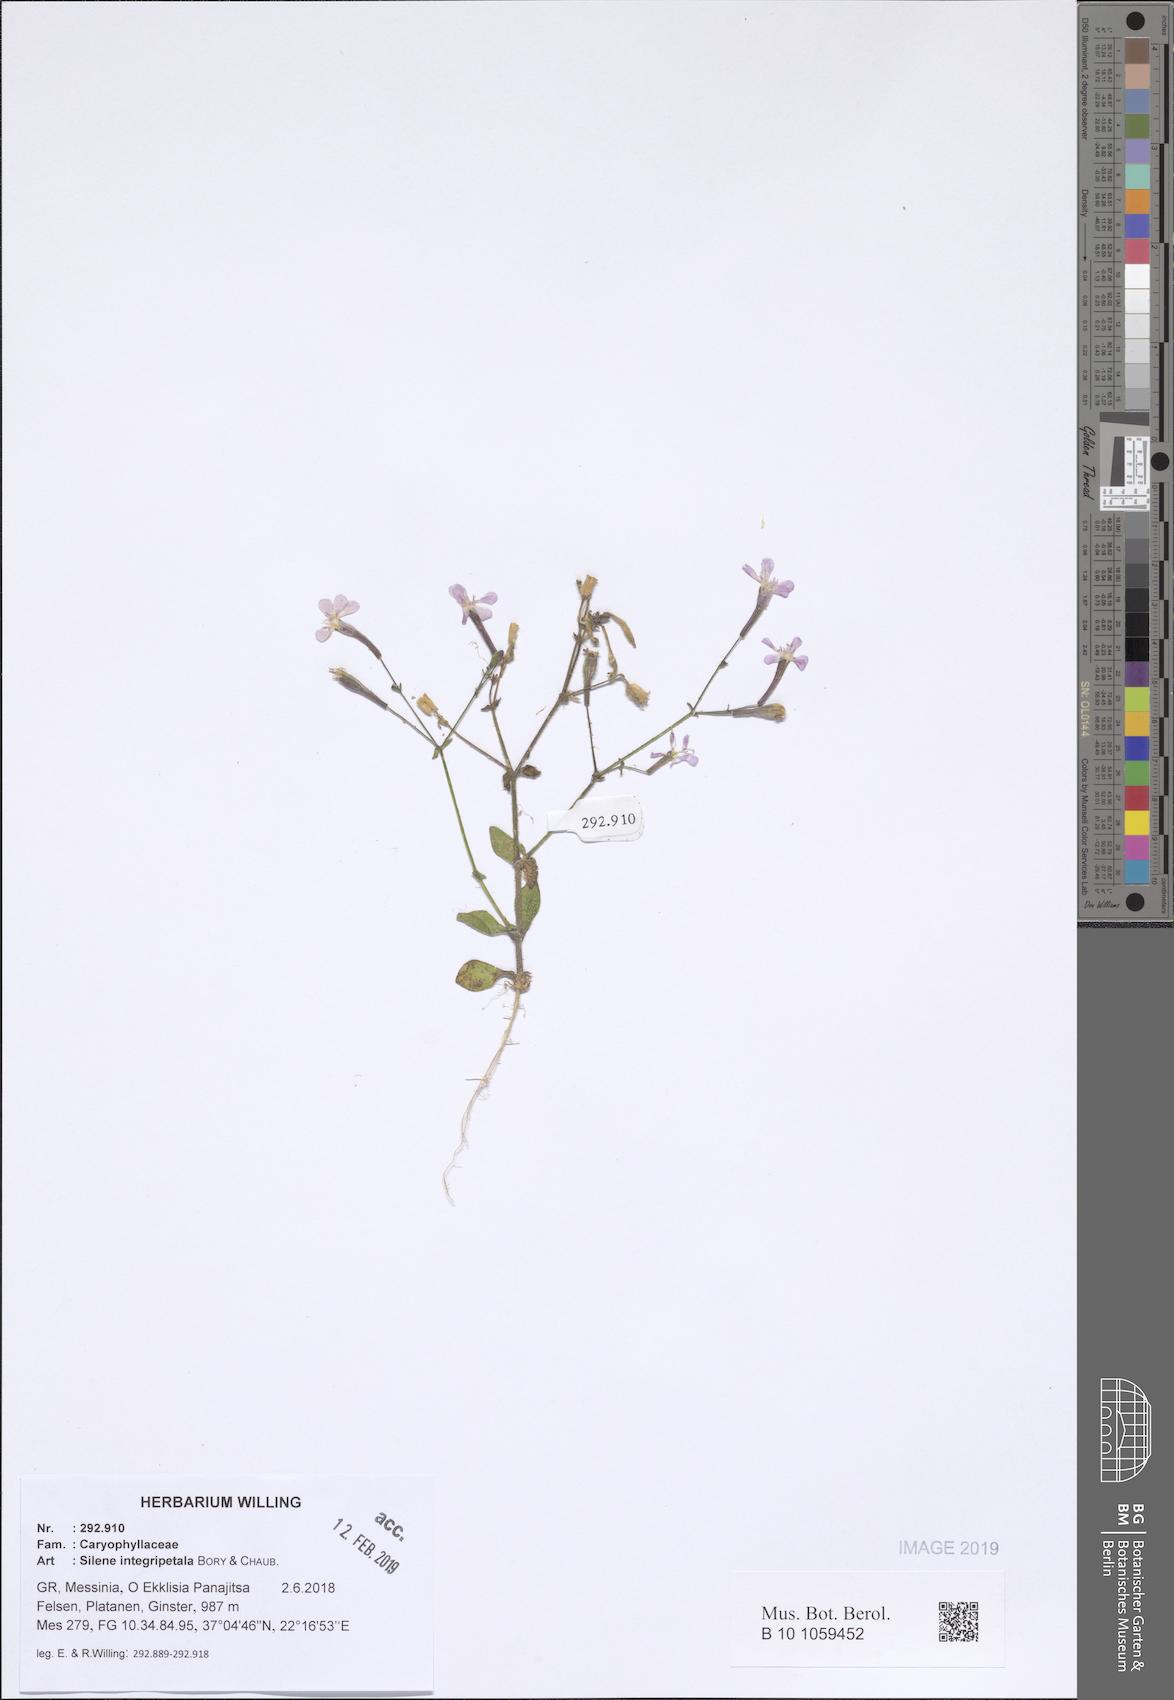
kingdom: Plantae
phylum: Tracheophyta
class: Magnoliopsida
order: Caryophyllales
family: Caryophyllaceae
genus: Silene
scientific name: Silene integripetala
